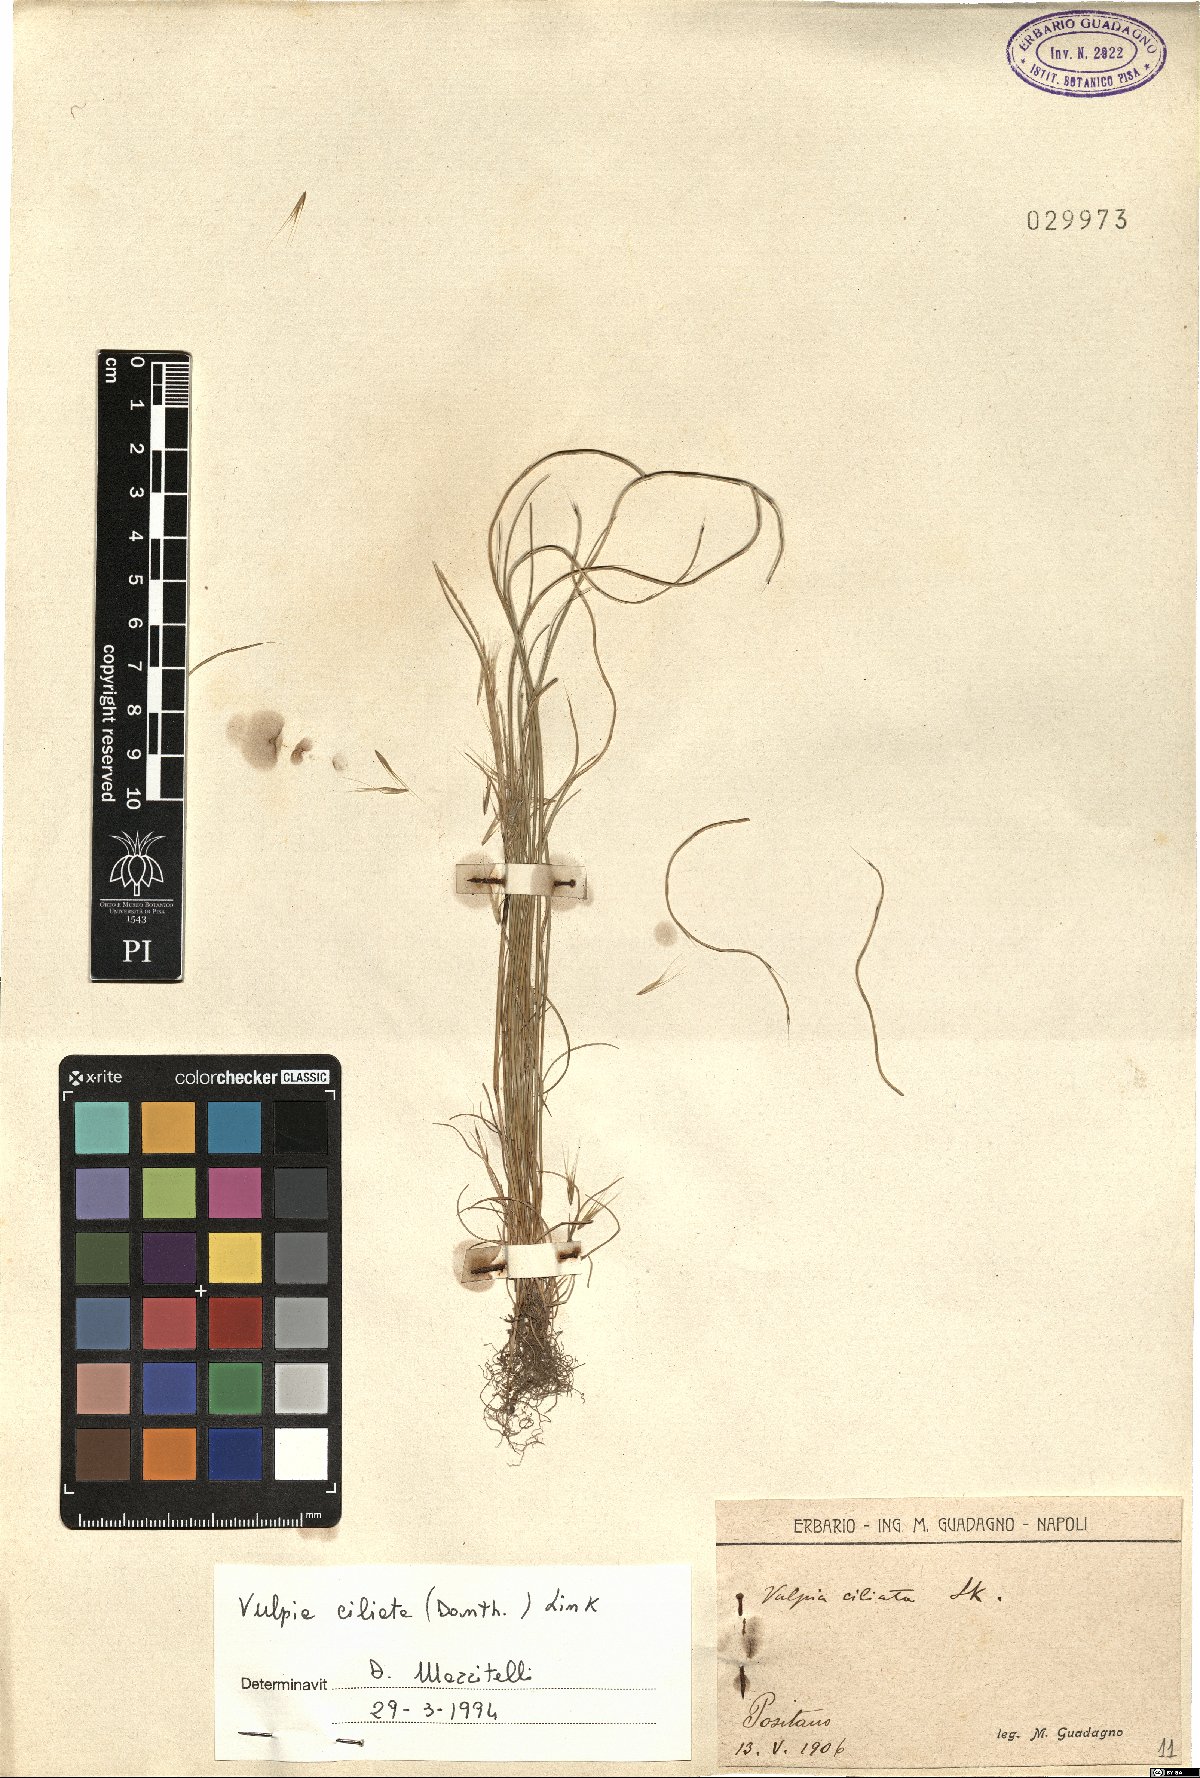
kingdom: Plantae
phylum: Tracheophyta
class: Liliopsida
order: Poales
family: Poaceae
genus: Festuca
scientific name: Festuca ambigua
